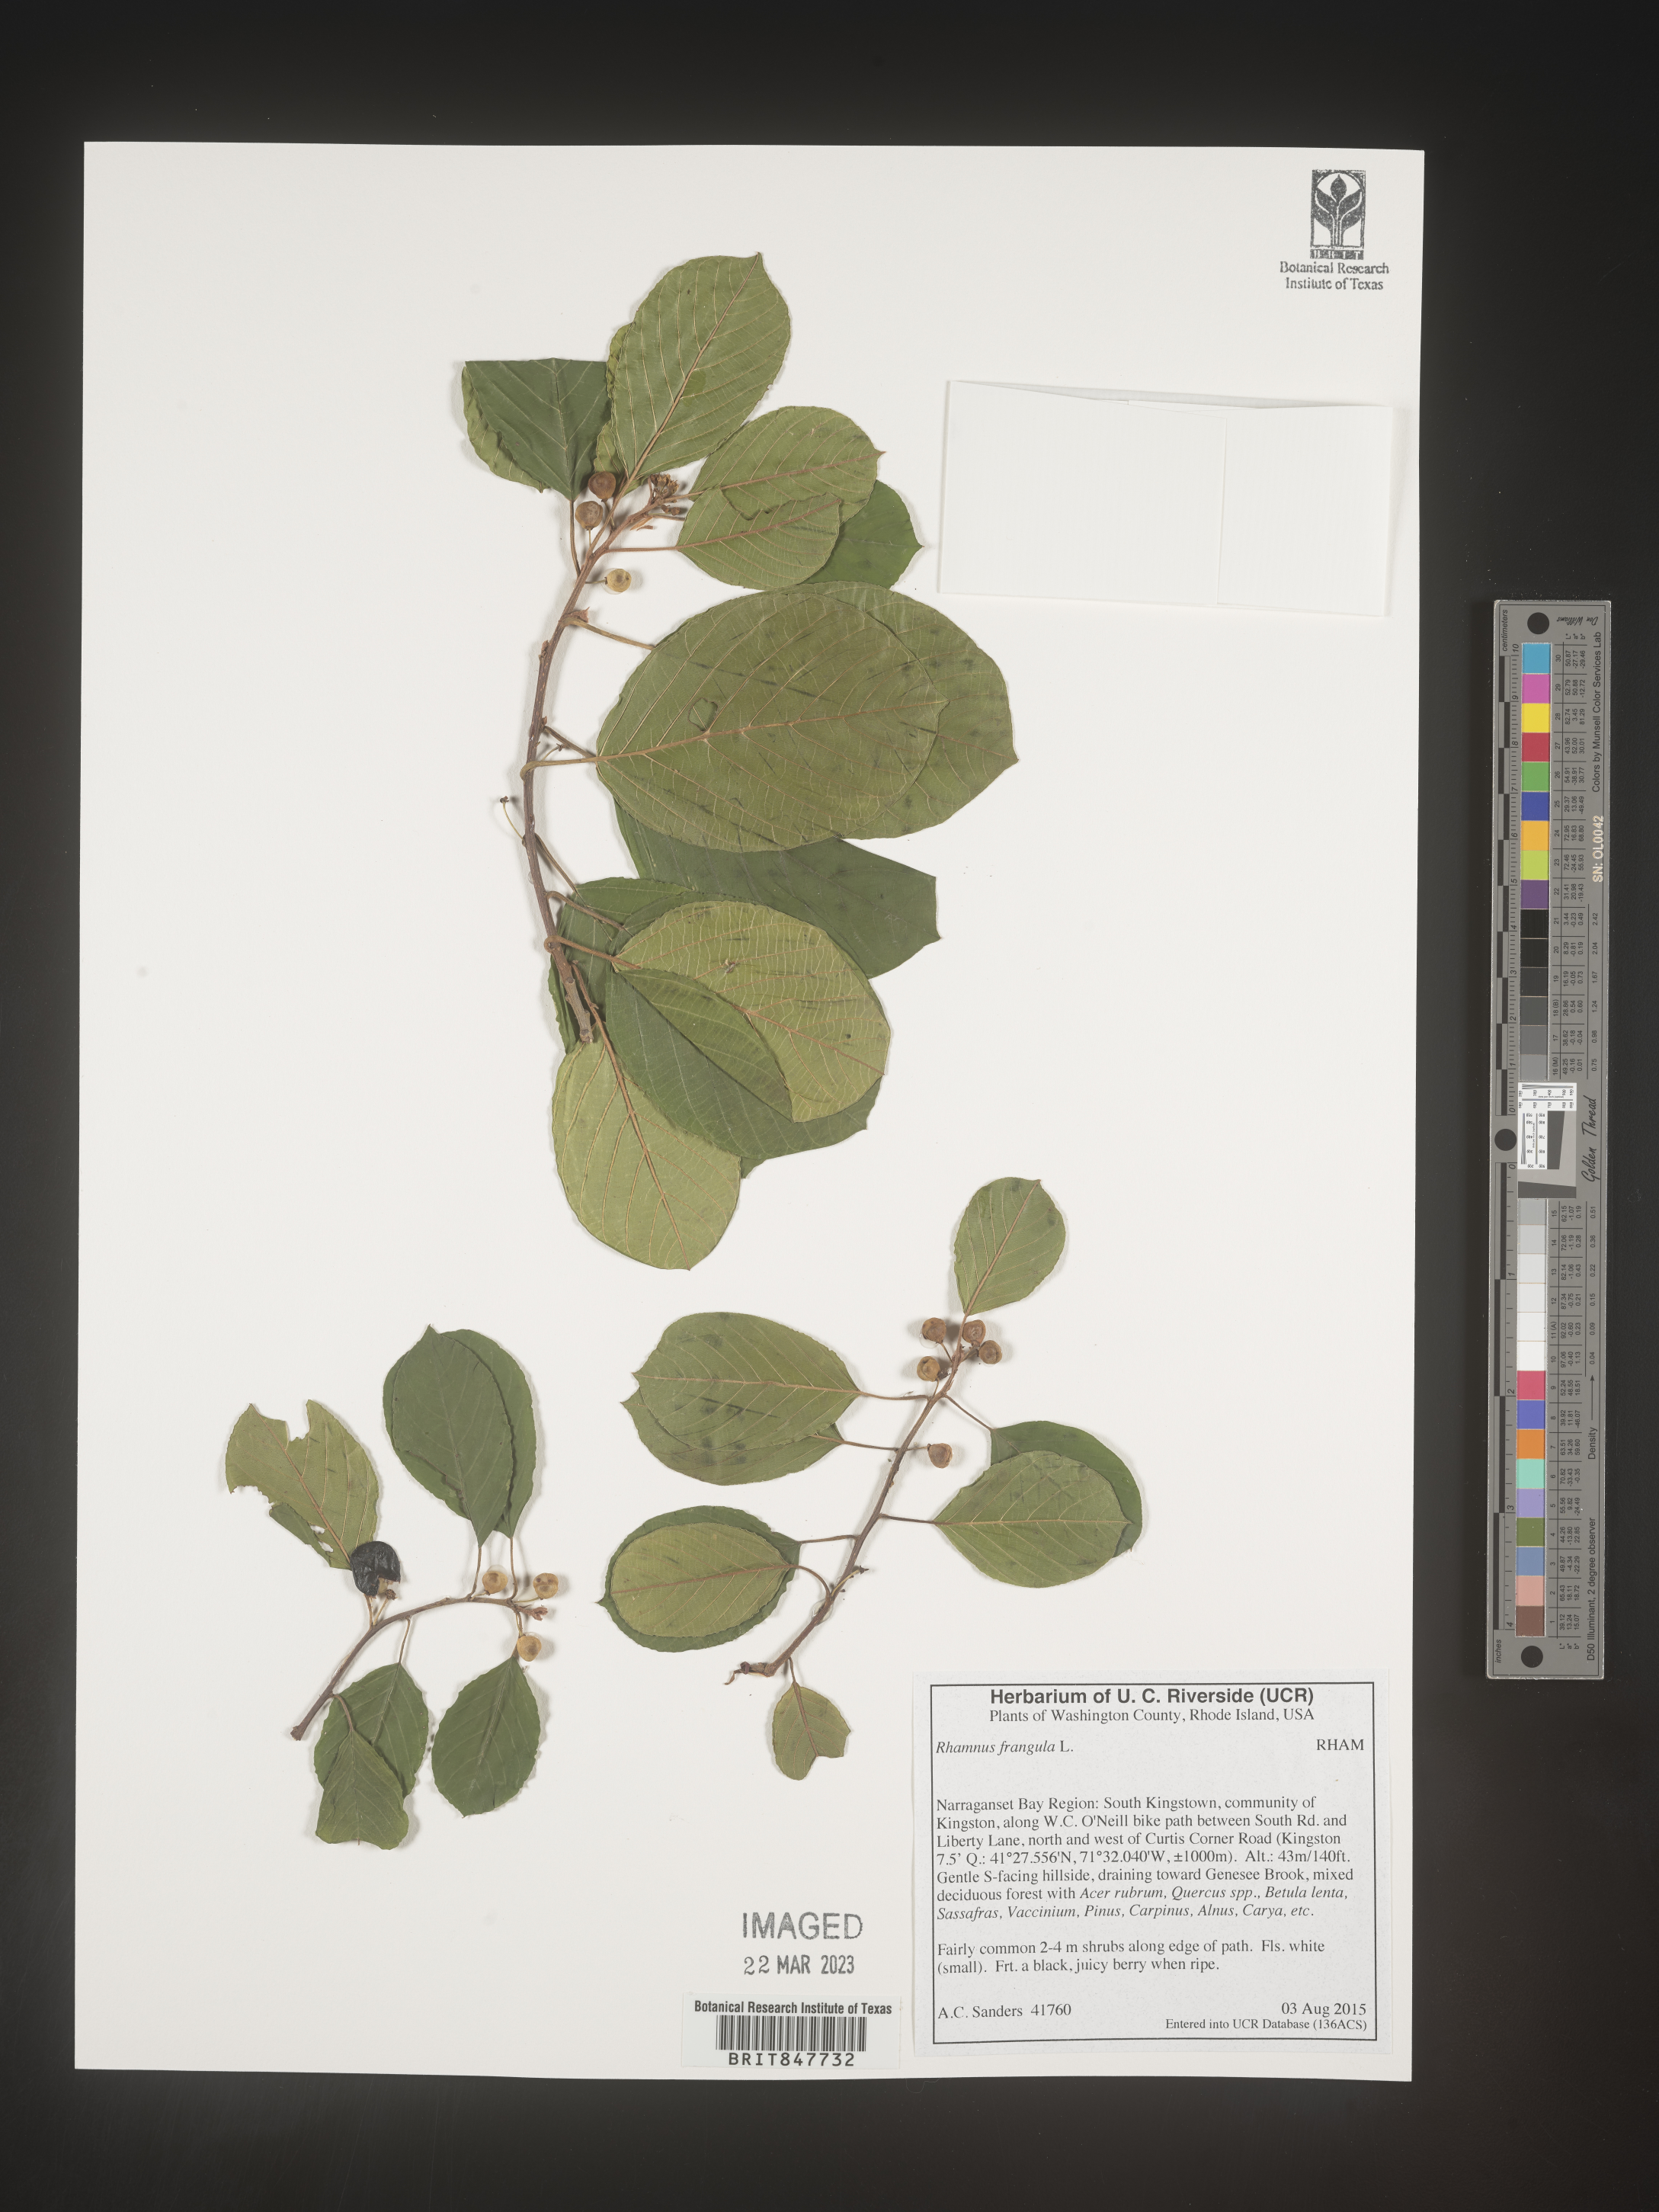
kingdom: Plantae
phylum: Tracheophyta
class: Magnoliopsida
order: Rosales
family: Rhamnaceae
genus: Frangula
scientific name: Frangula alnus
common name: Alder buckthorn
